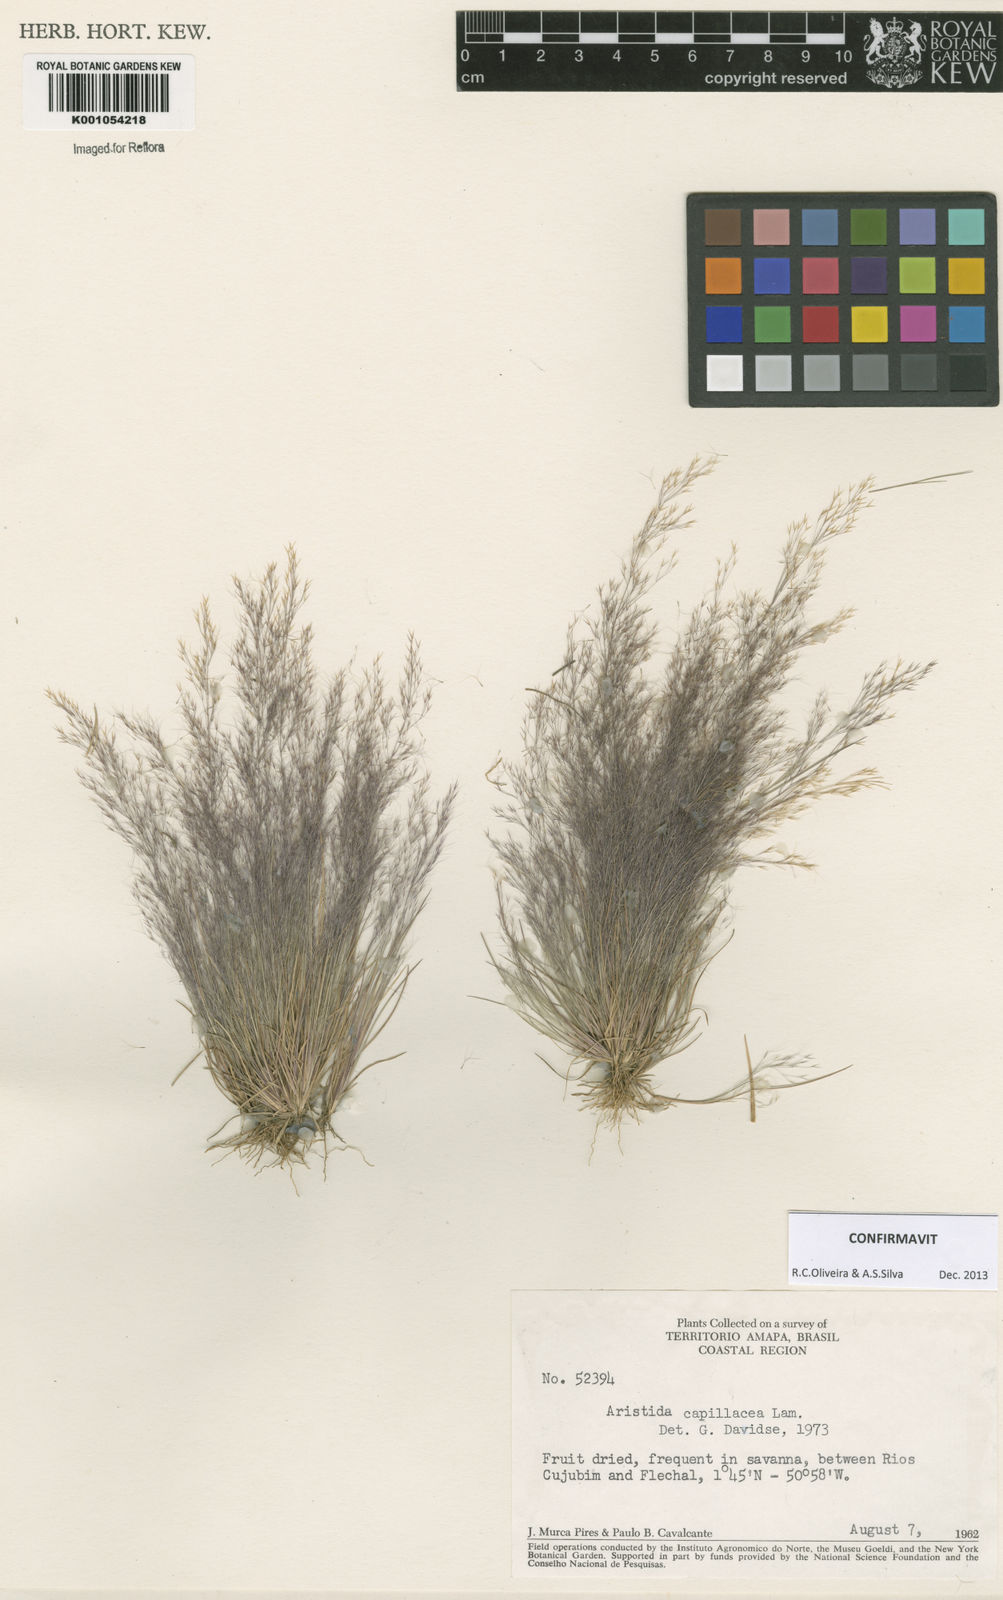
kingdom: Plantae
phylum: Tracheophyta
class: Liliopsida
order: Poales
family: Poaceae
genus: Aristida
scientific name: Aristida capillacea
